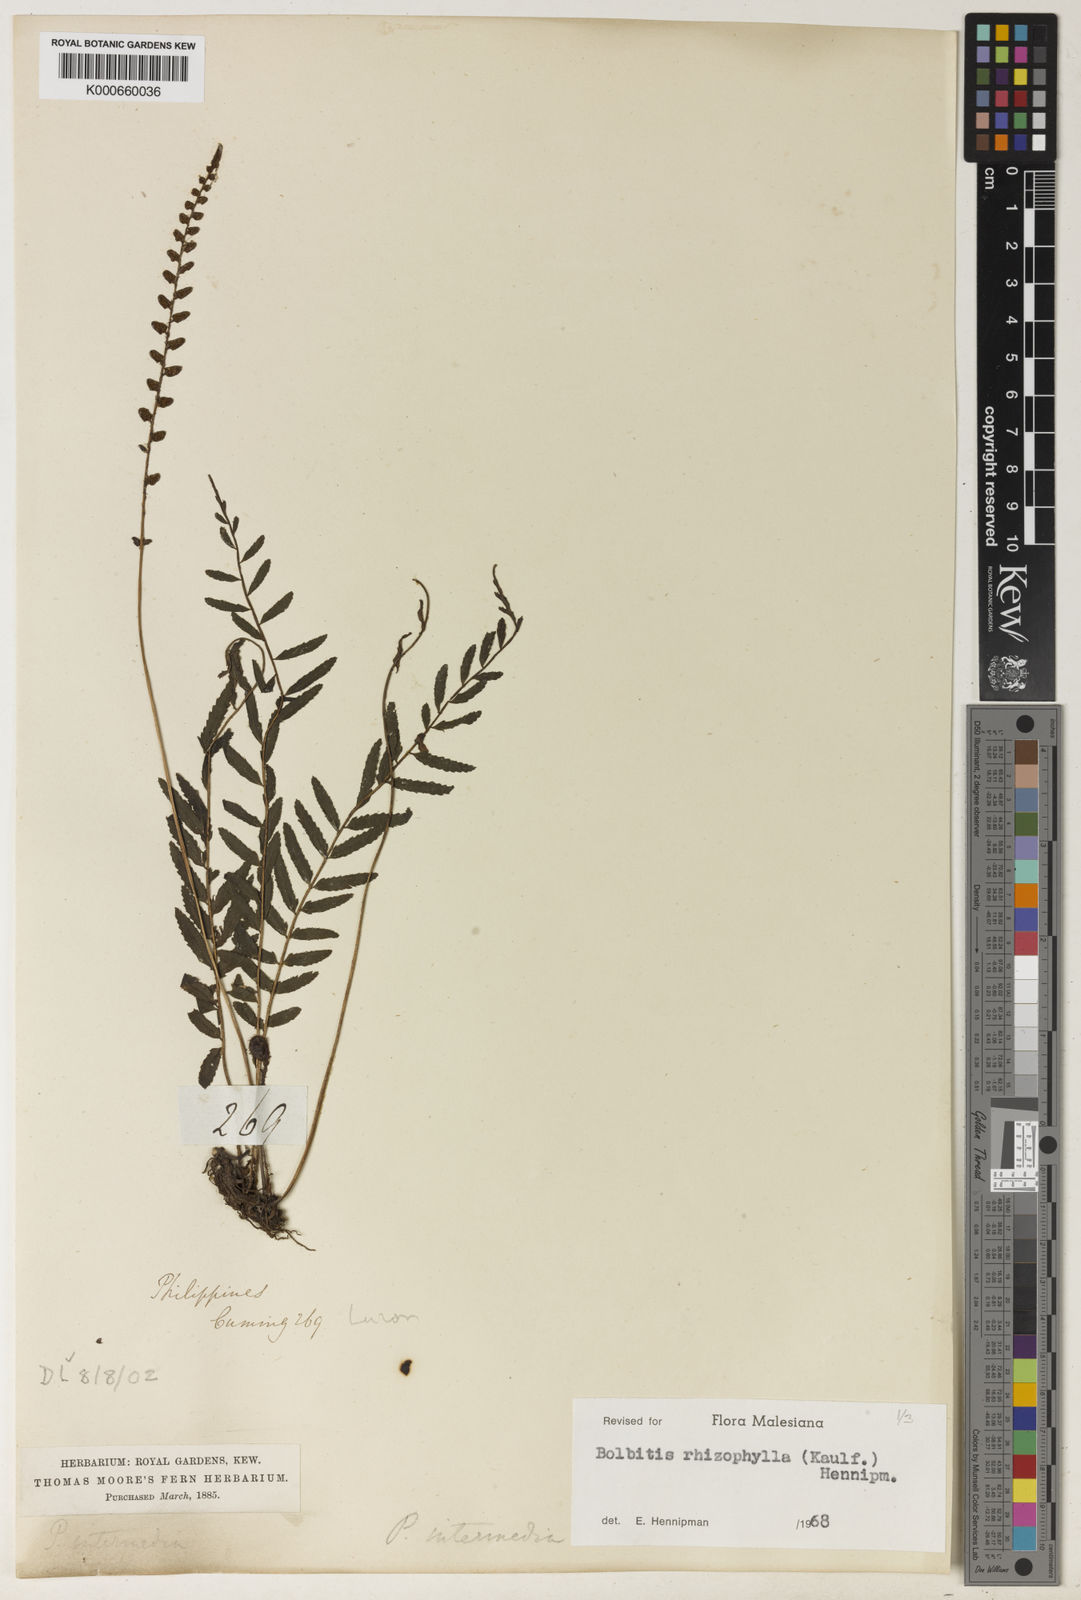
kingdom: Plantae
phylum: Tracheophyta
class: Polypodiopsida
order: Polypodiales
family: Dryopteridaceae
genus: Bolbitis
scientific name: Bolbitis rhizophylla
